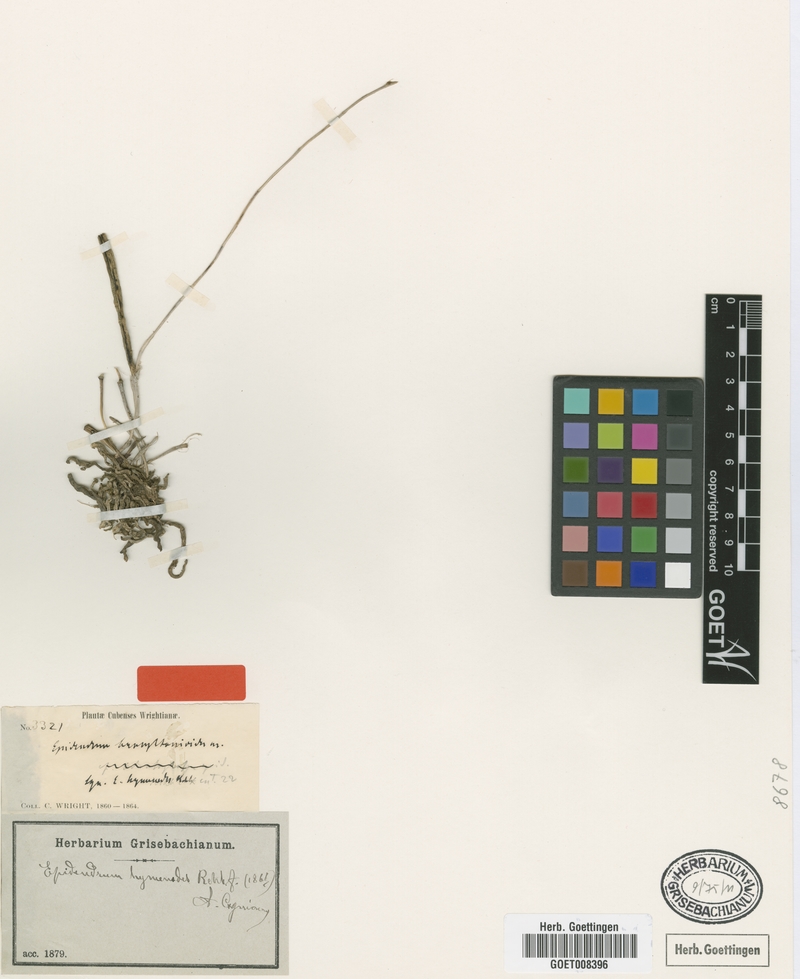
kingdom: Plantae
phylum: Tracheophyta
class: Liliopsida
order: Asparagales
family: Orchidaceae
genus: Domingoa
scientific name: Domingoa haematochila
